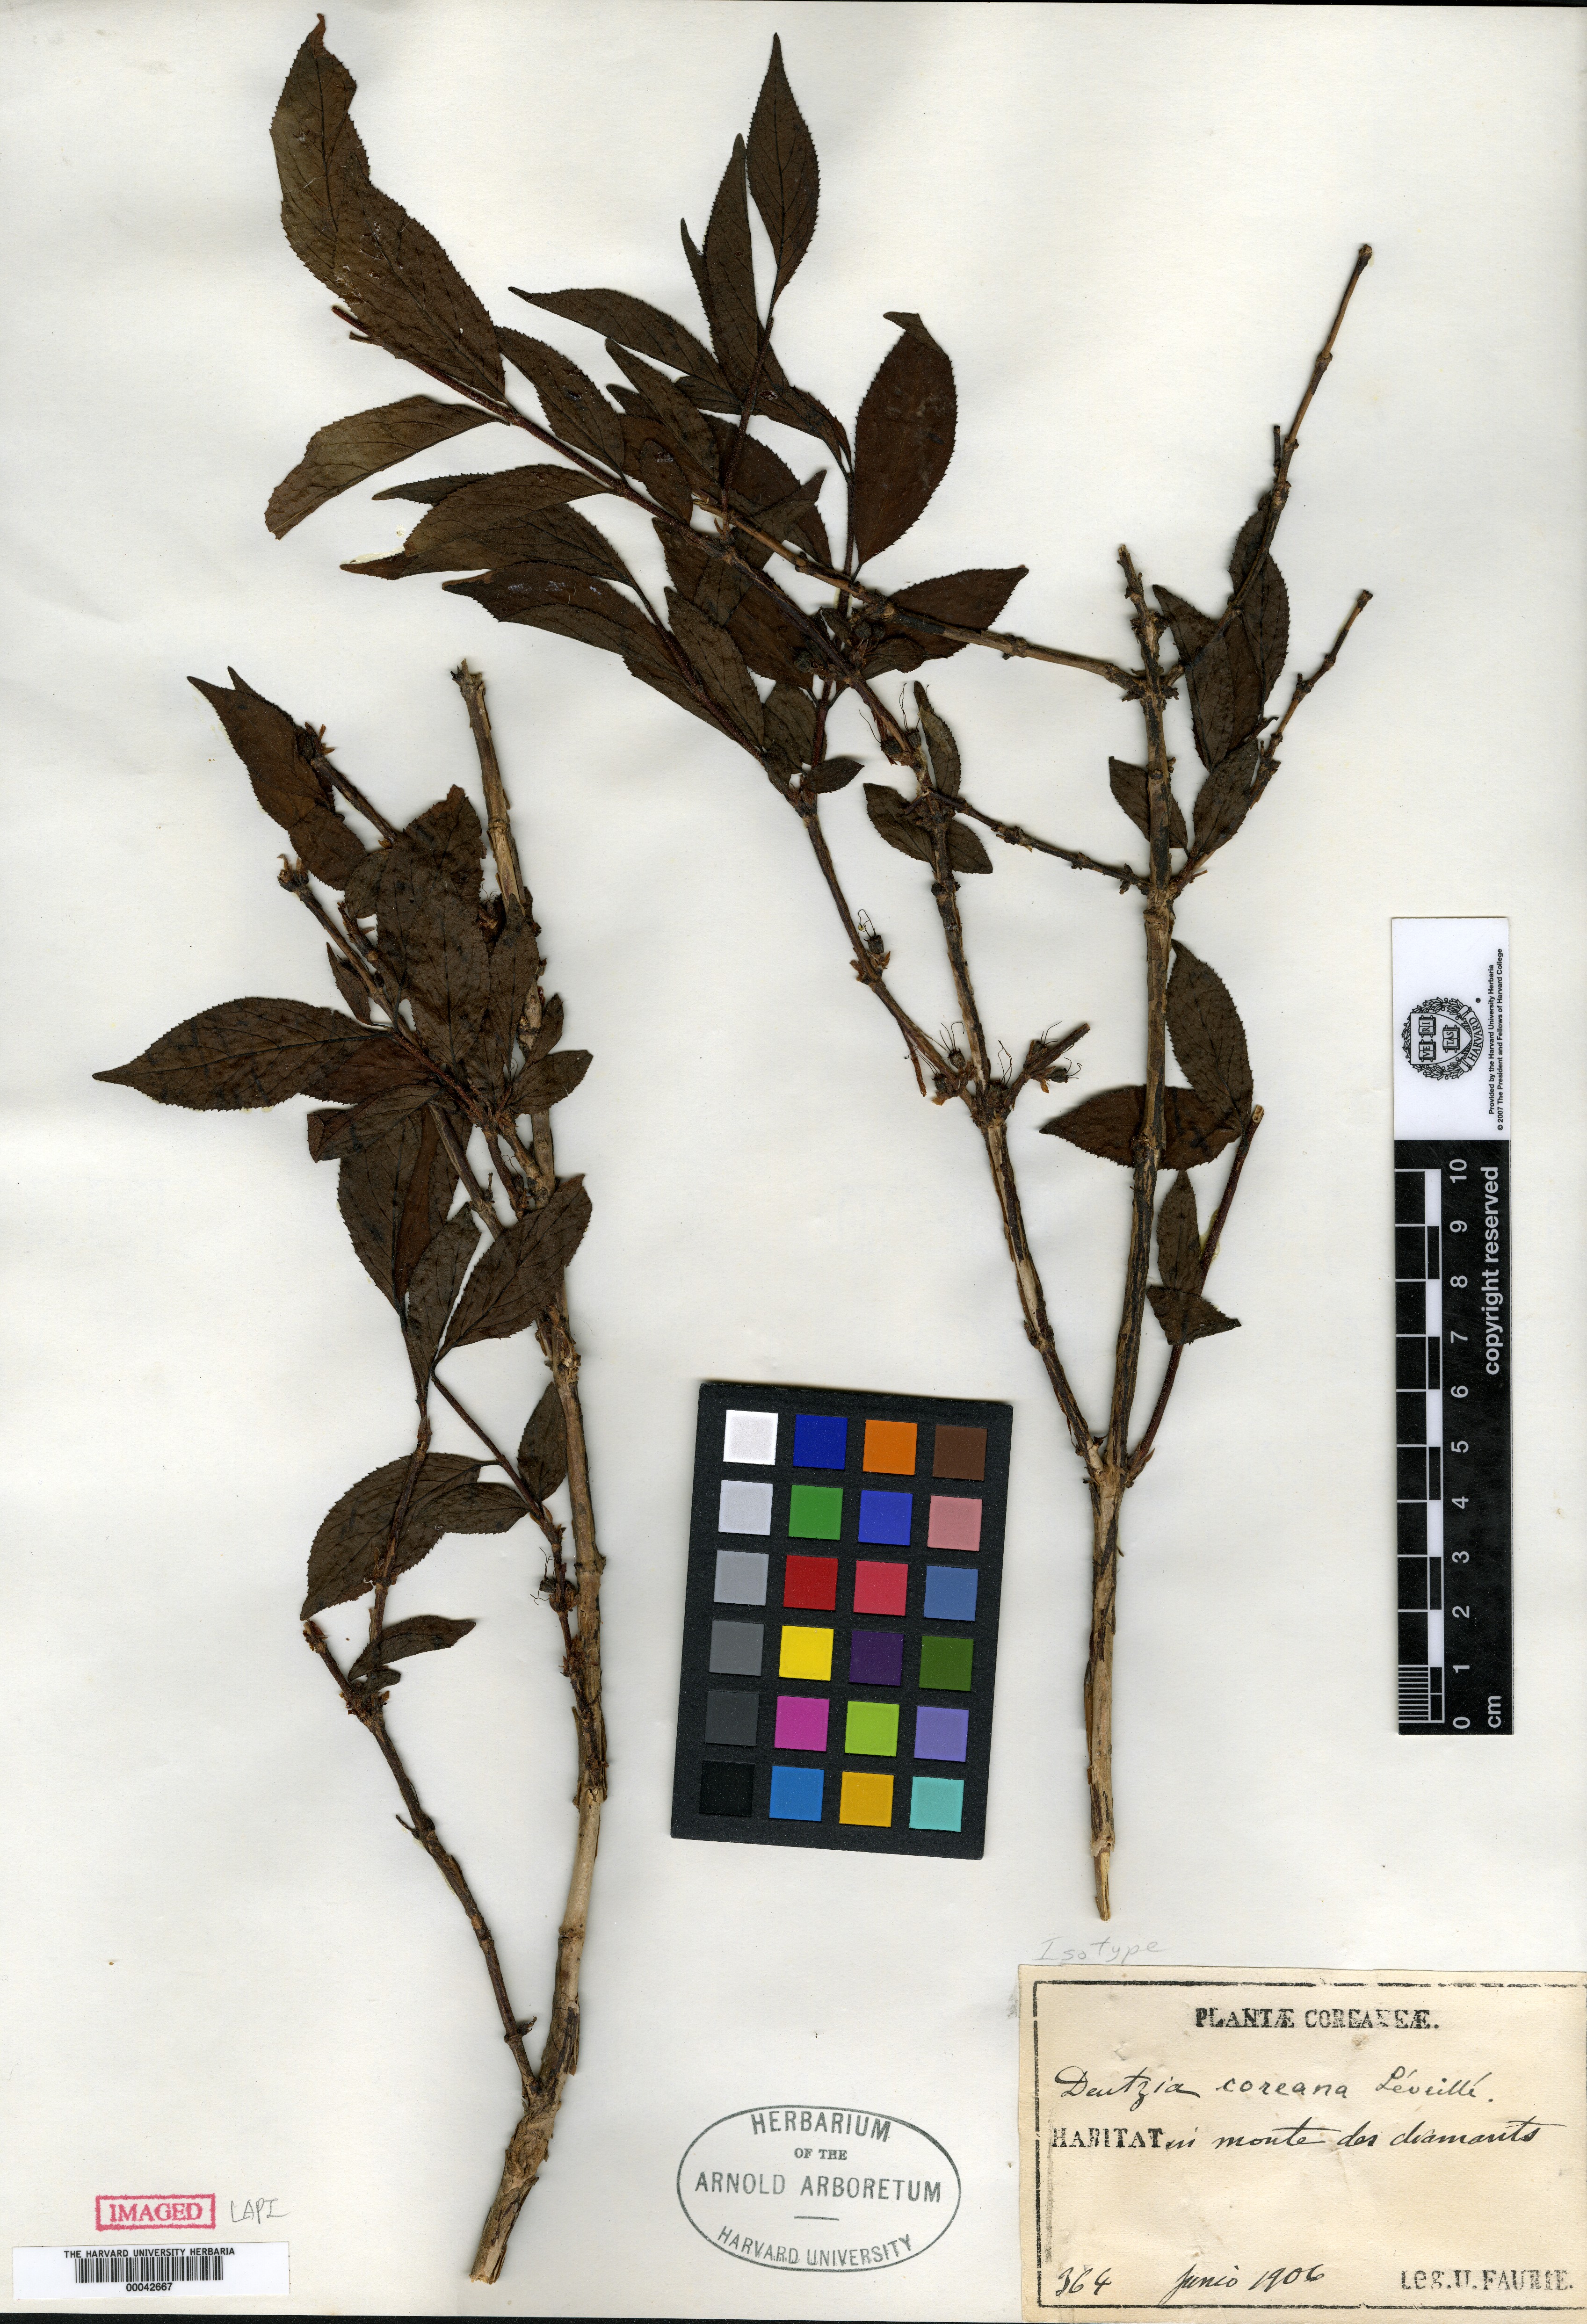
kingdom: Plantae
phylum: Tracheophyta
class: Magnoliopsida
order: Cornales
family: Hydrangeaceae
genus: Deutzia
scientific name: Deutzia uniflora
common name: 말발도리
